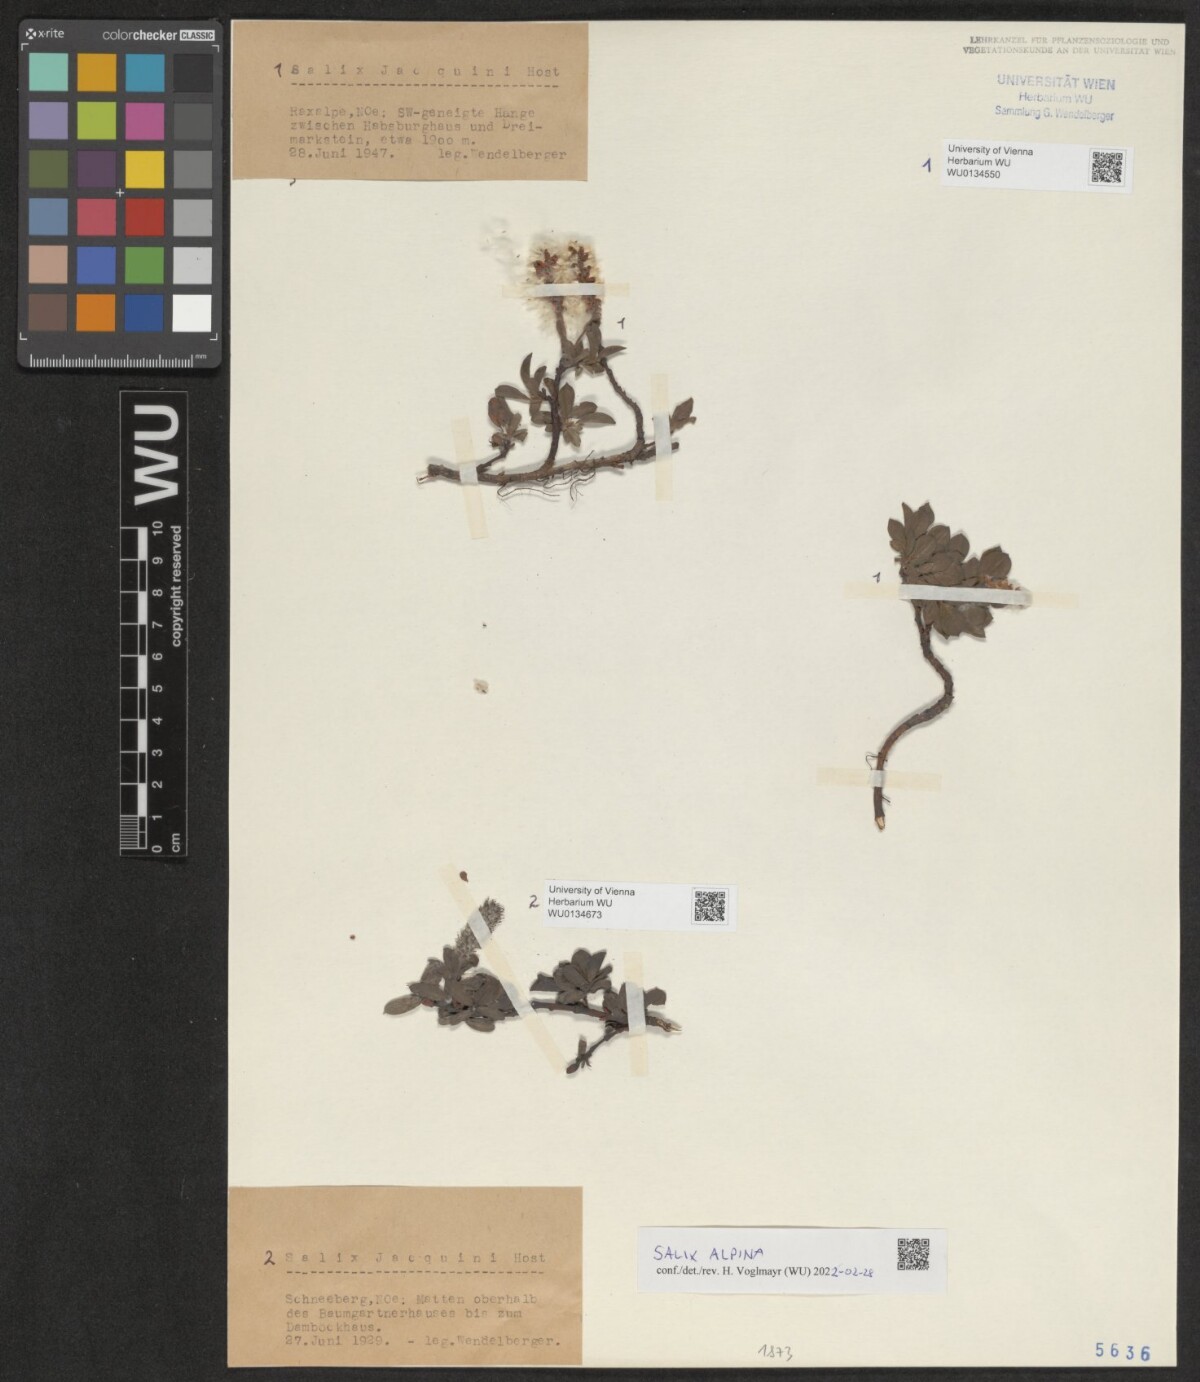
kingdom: Plantae
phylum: Tracheophyta
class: Magnoliopsida
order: Malpighiales
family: Salicaceae
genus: Salix
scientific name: Salix alpina
